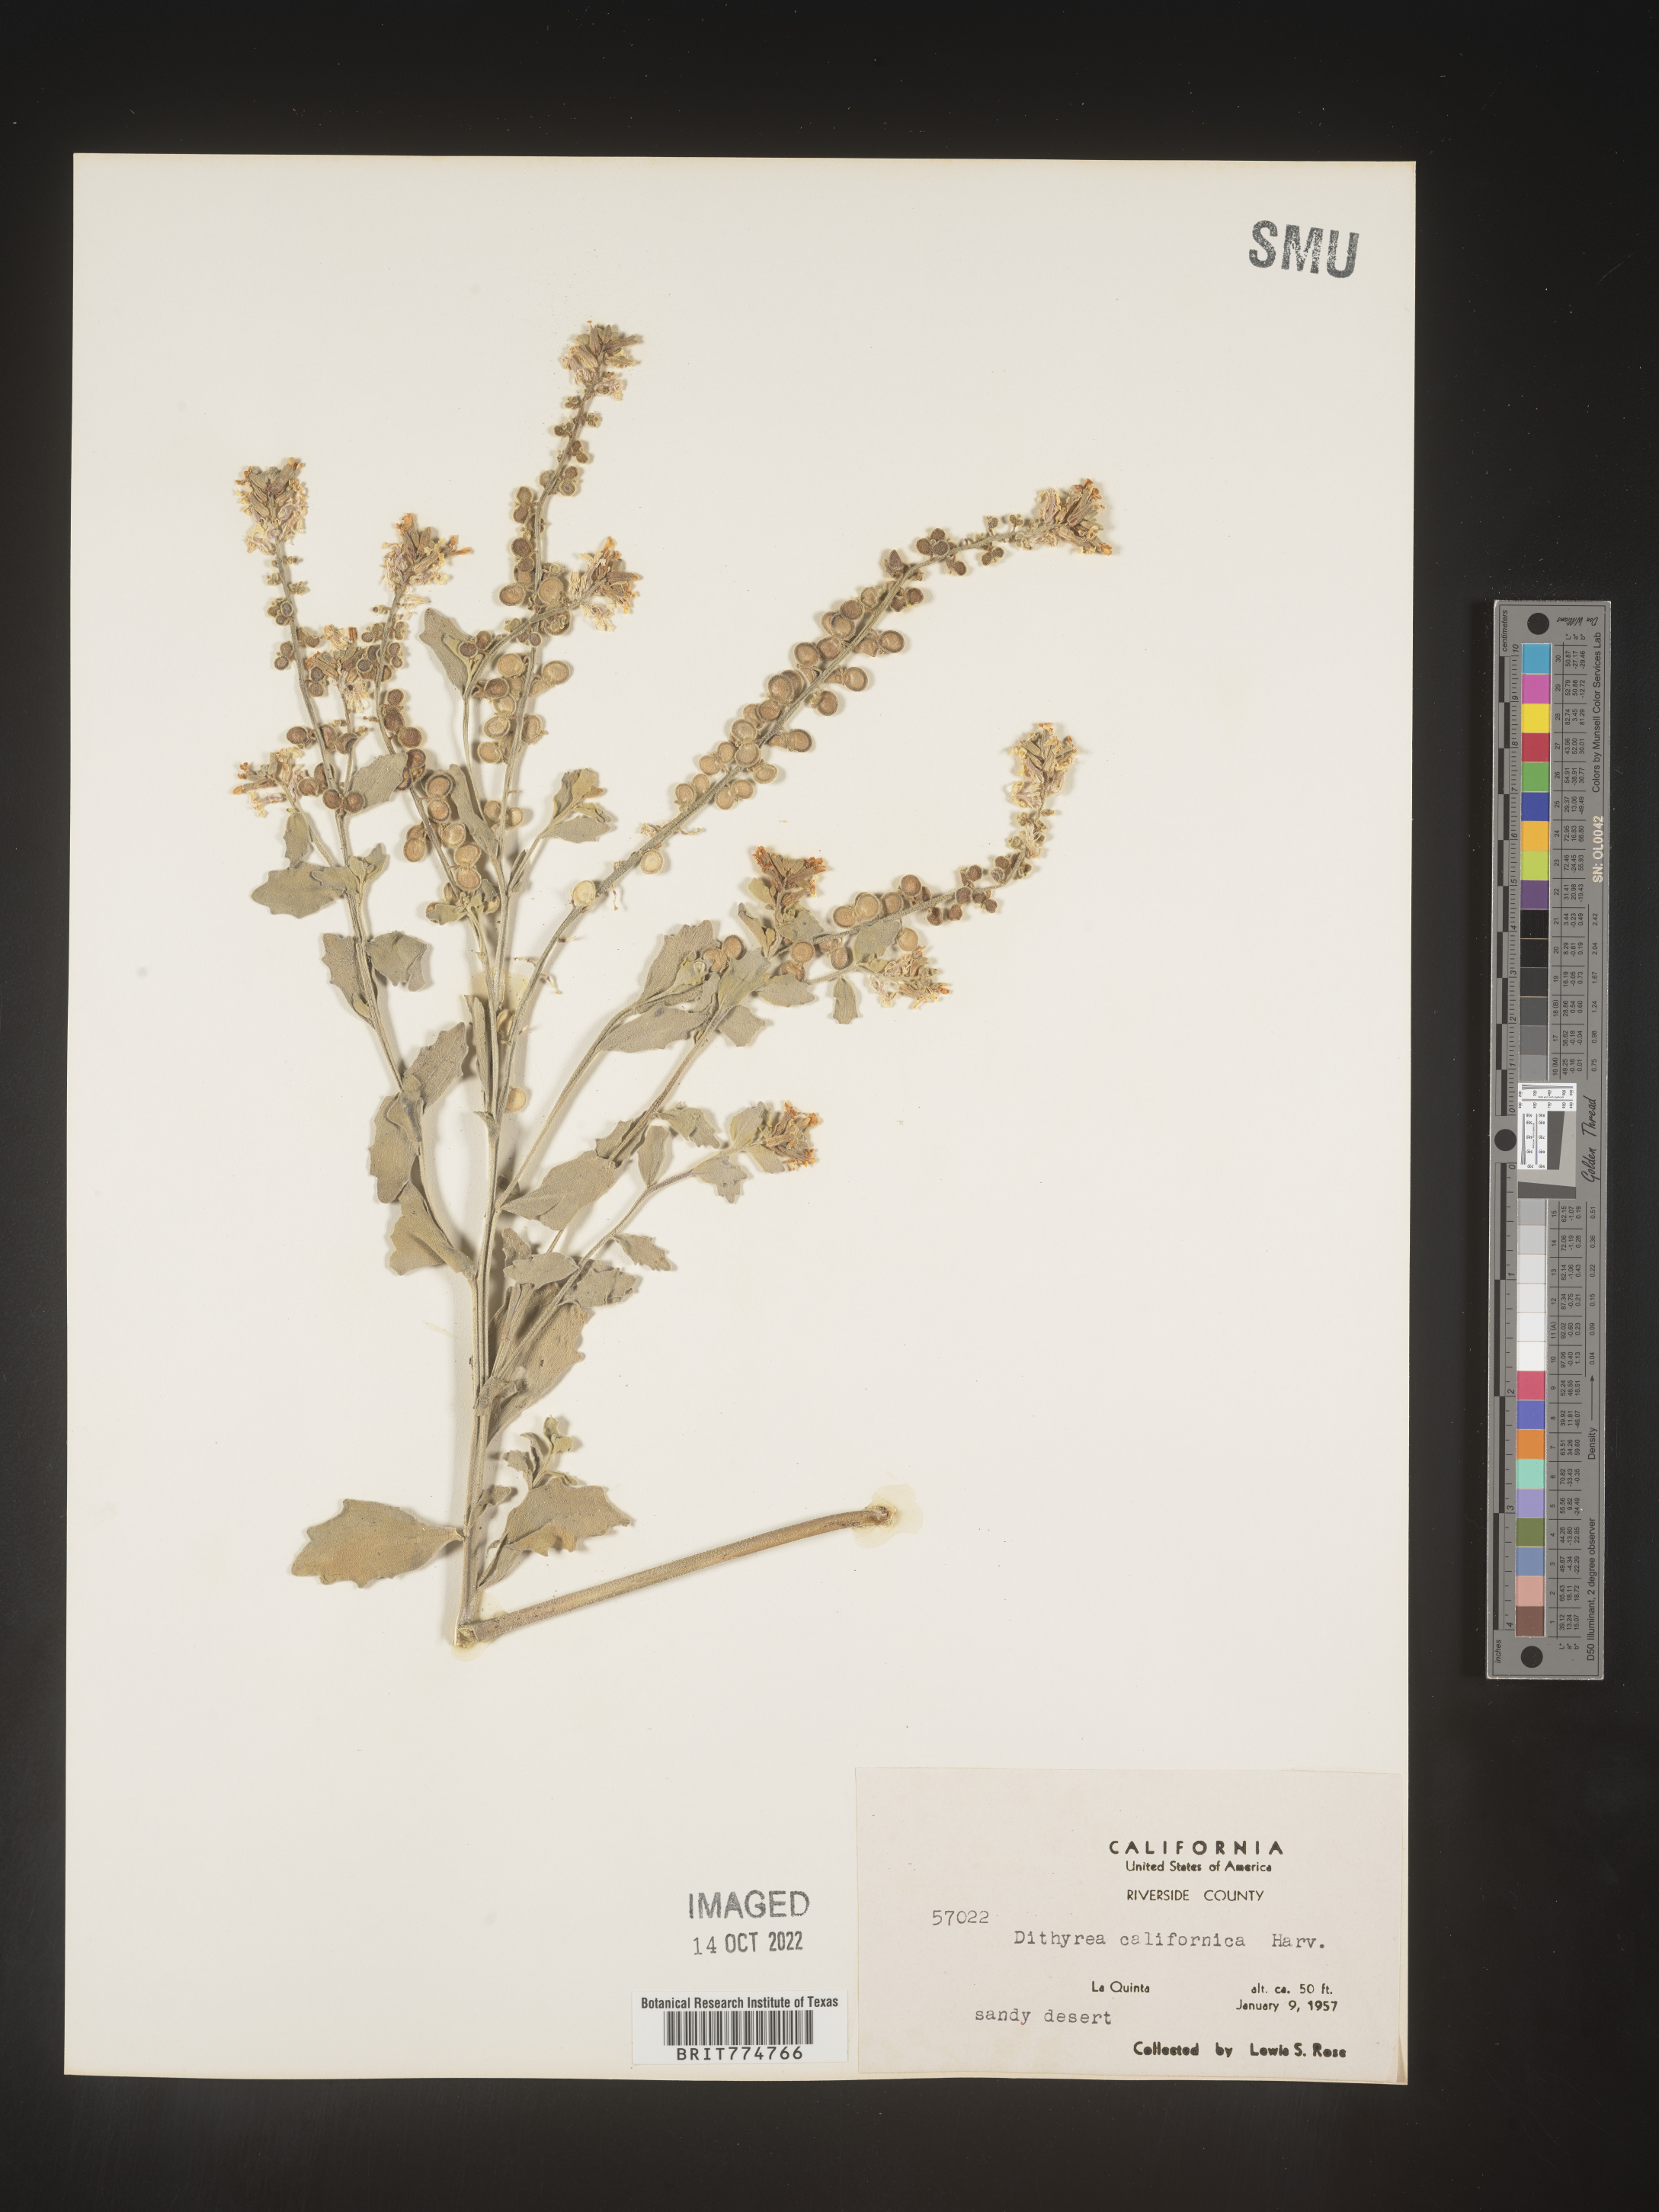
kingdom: Plantae
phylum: Tracheophyta
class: Magnoliopsida
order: Brassicales
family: Brassicaceae
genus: Dithyrea
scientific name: Dithyrea californica
